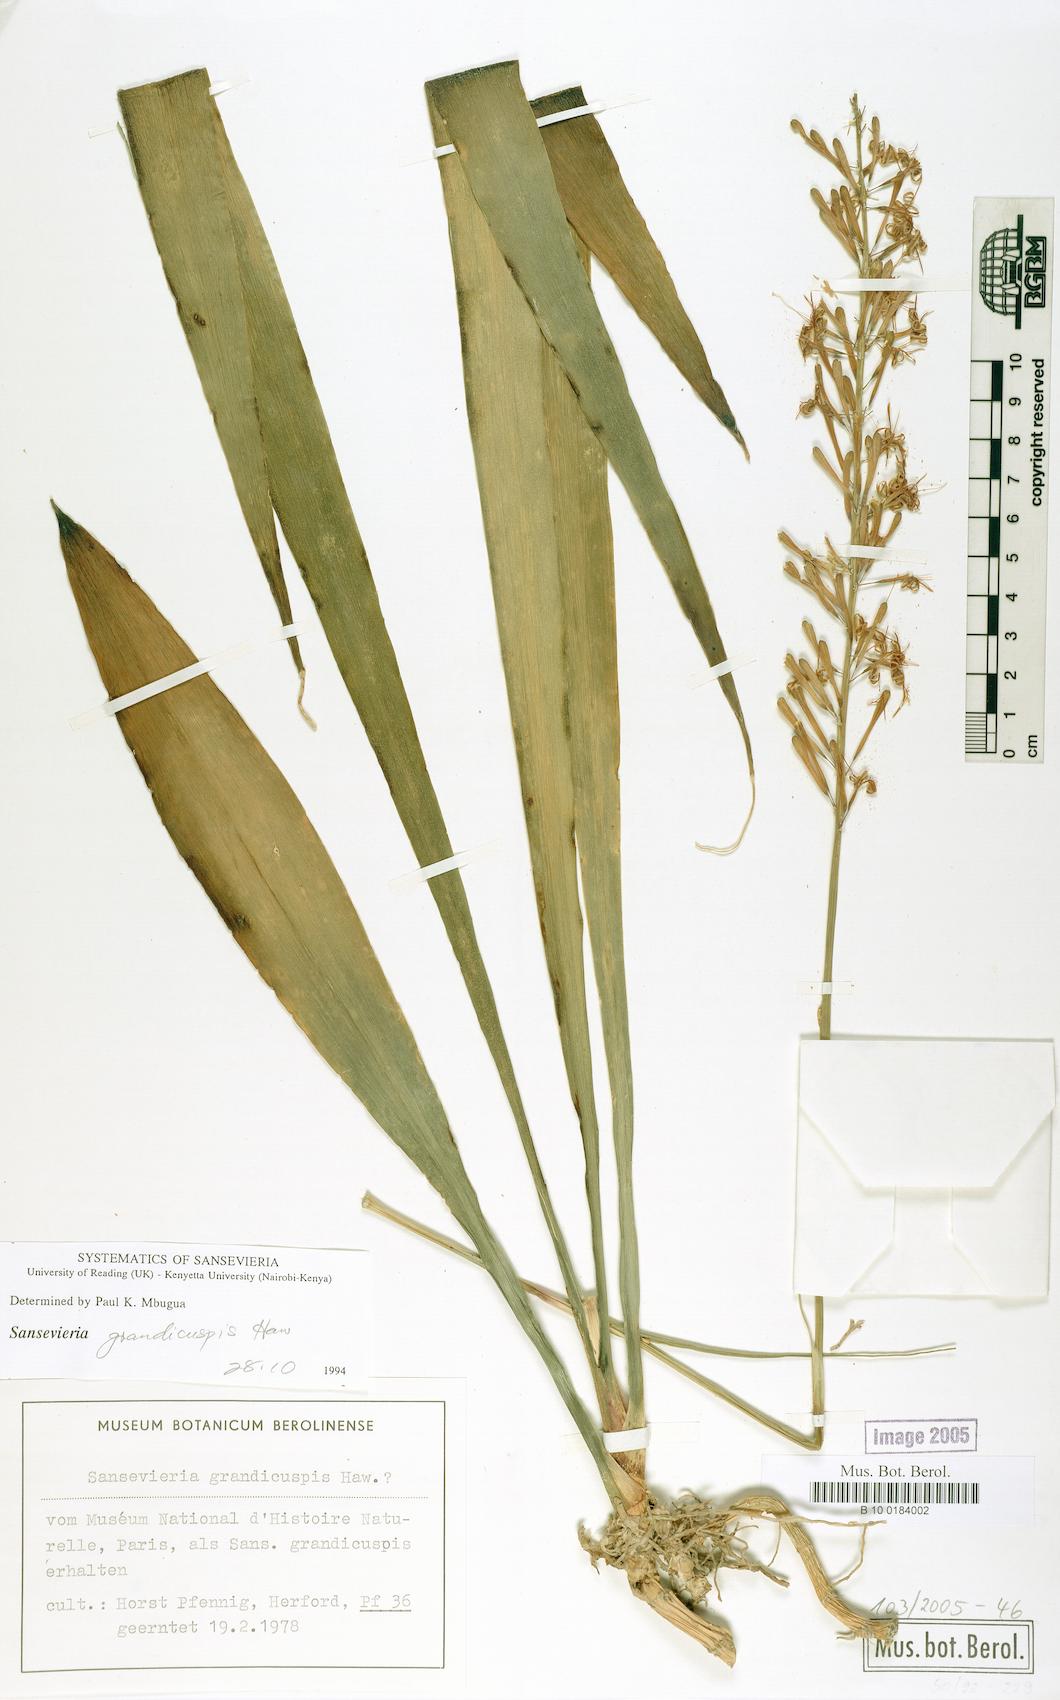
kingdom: Plantae
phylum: Tracheophyta
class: Liliopsida
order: Asparagales
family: Asparagaceae
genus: Dracaena
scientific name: Dracaena zeylanica
